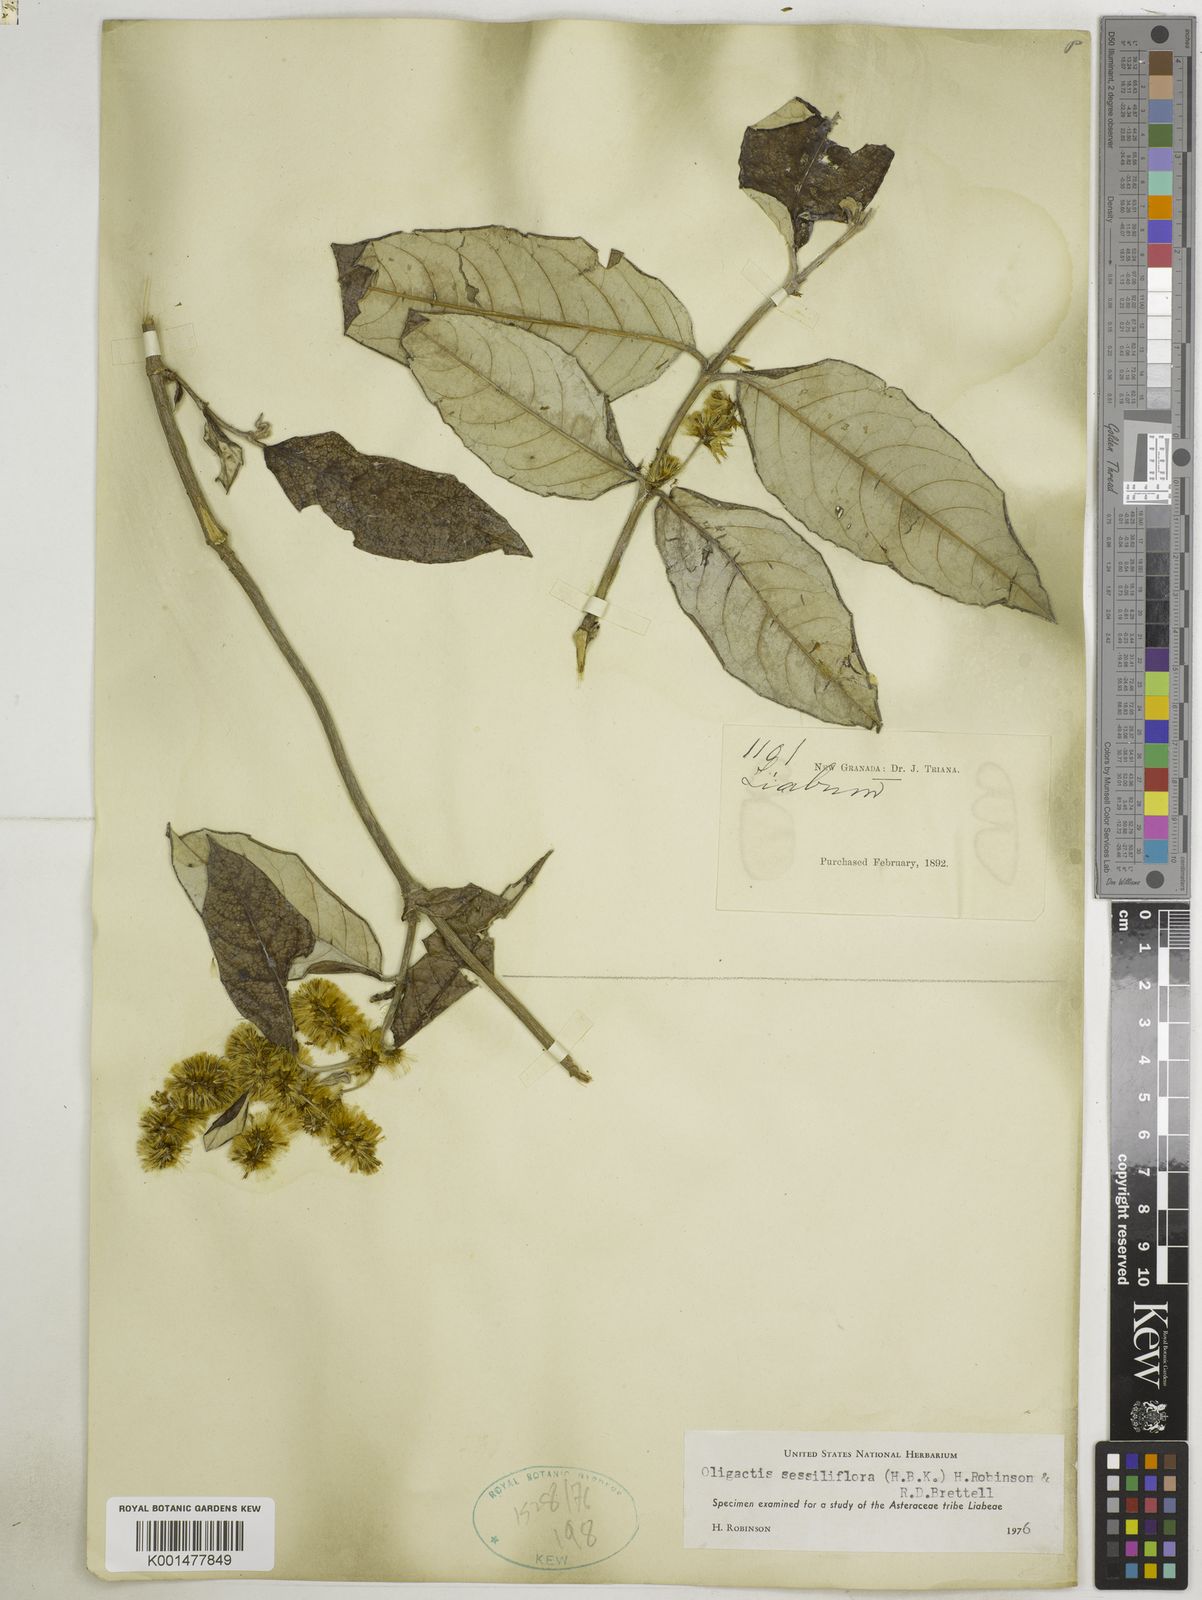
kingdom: Plantae
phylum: Tracheophyta
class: Magnoliopsida
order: Asterales
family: Asteraceae
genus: Oligactis
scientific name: Oligactis sessiliflora
